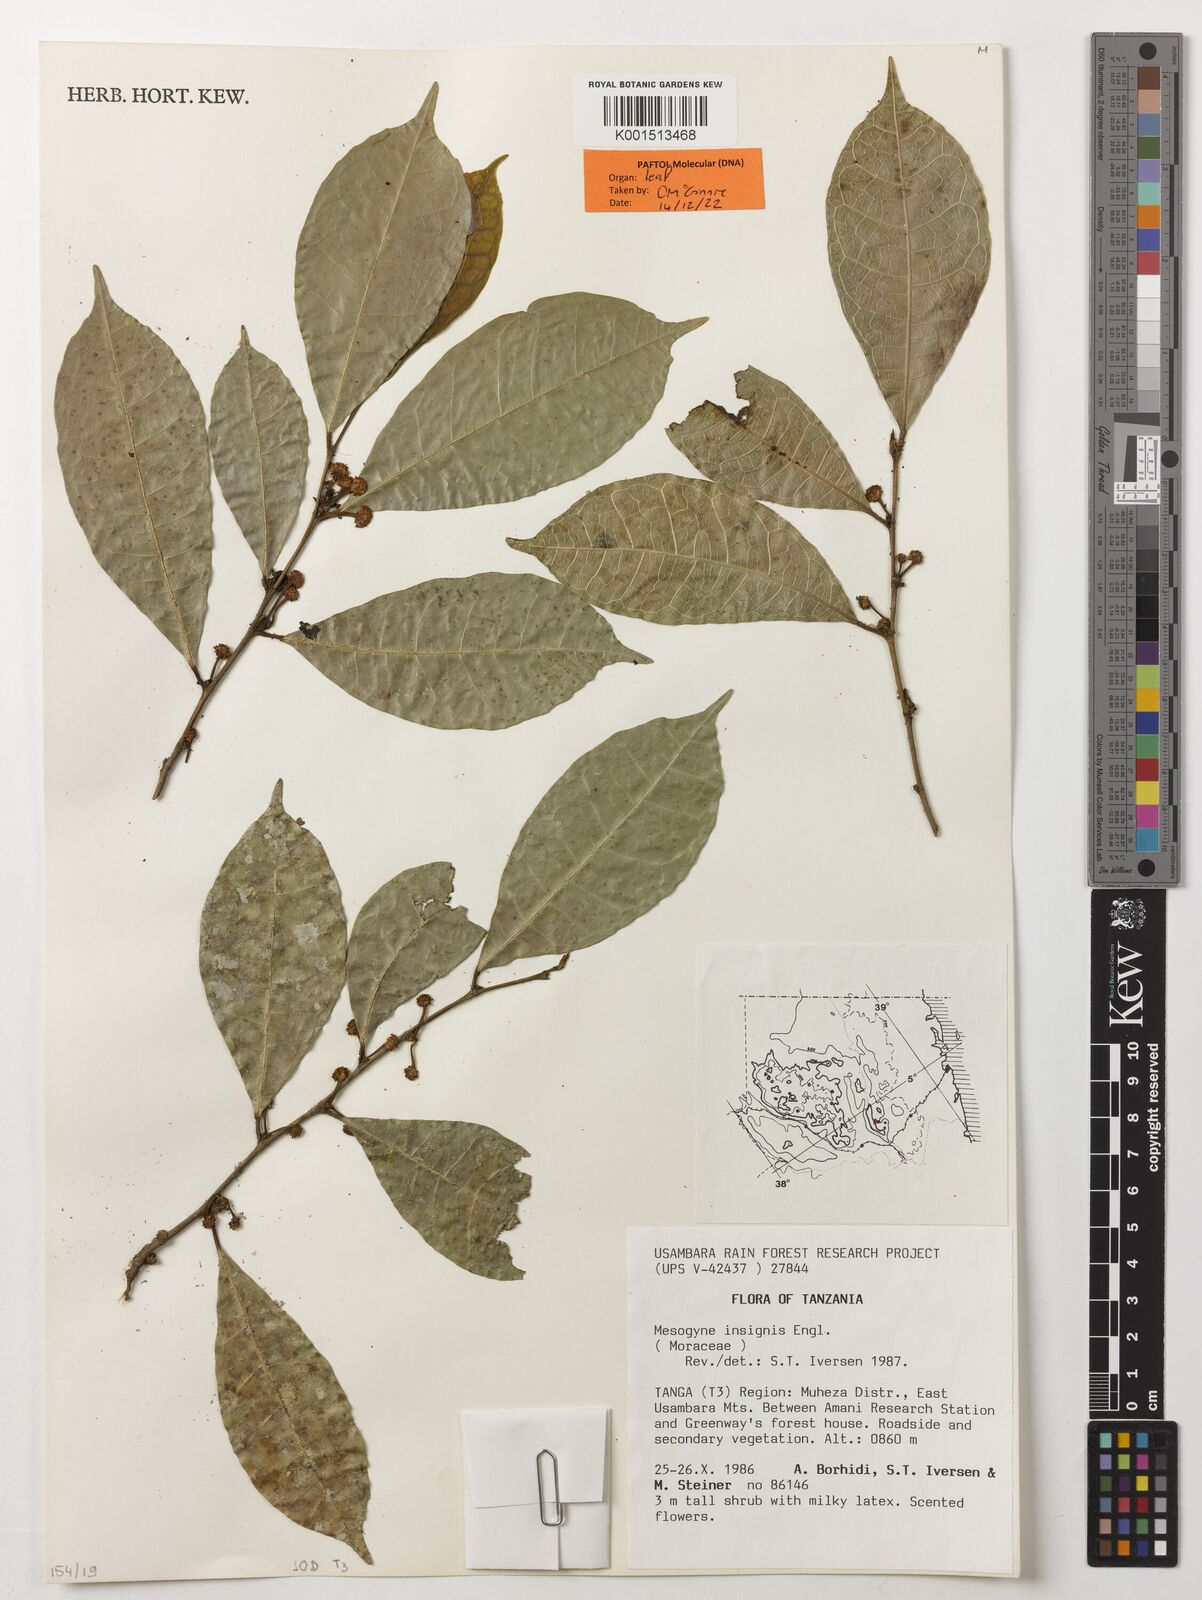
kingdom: Plantae
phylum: Tracheophyta
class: Magnoliopsida
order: Rosales
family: Moraceae
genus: Mesogyne
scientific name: Mesogyne insignis
